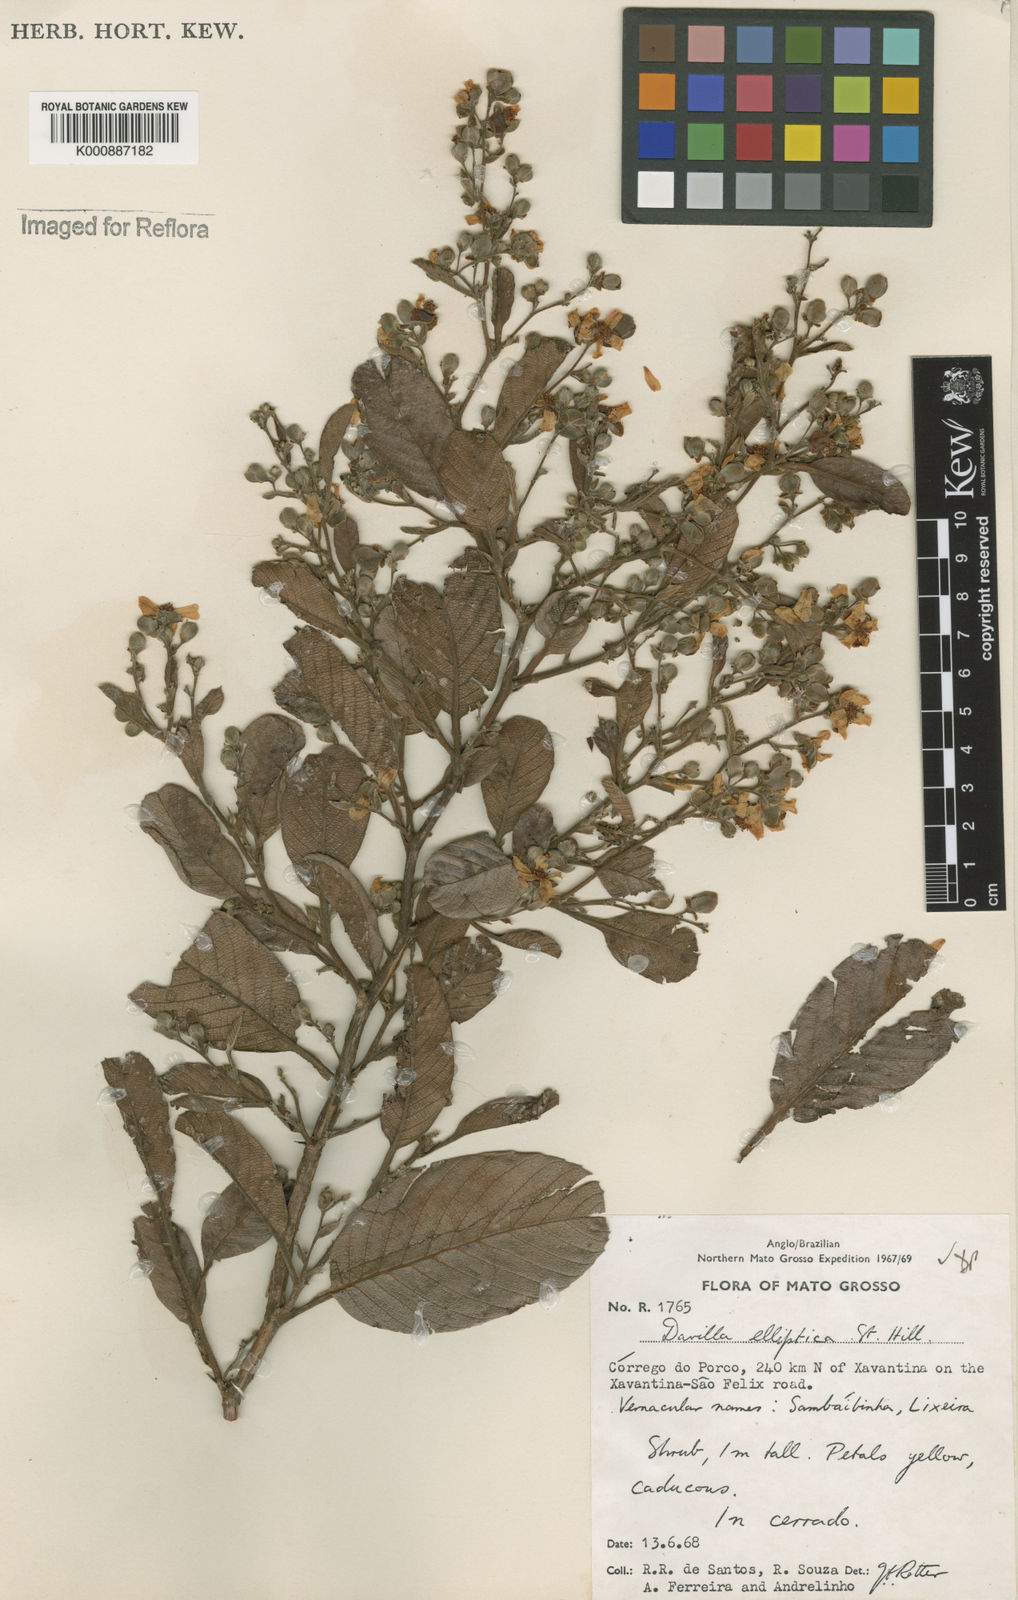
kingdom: Plantae
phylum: Tracheophyta
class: Magnoliopsida
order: Dilleniales
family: Dilleniaceae
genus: Davilla
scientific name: Davilla elliptica
